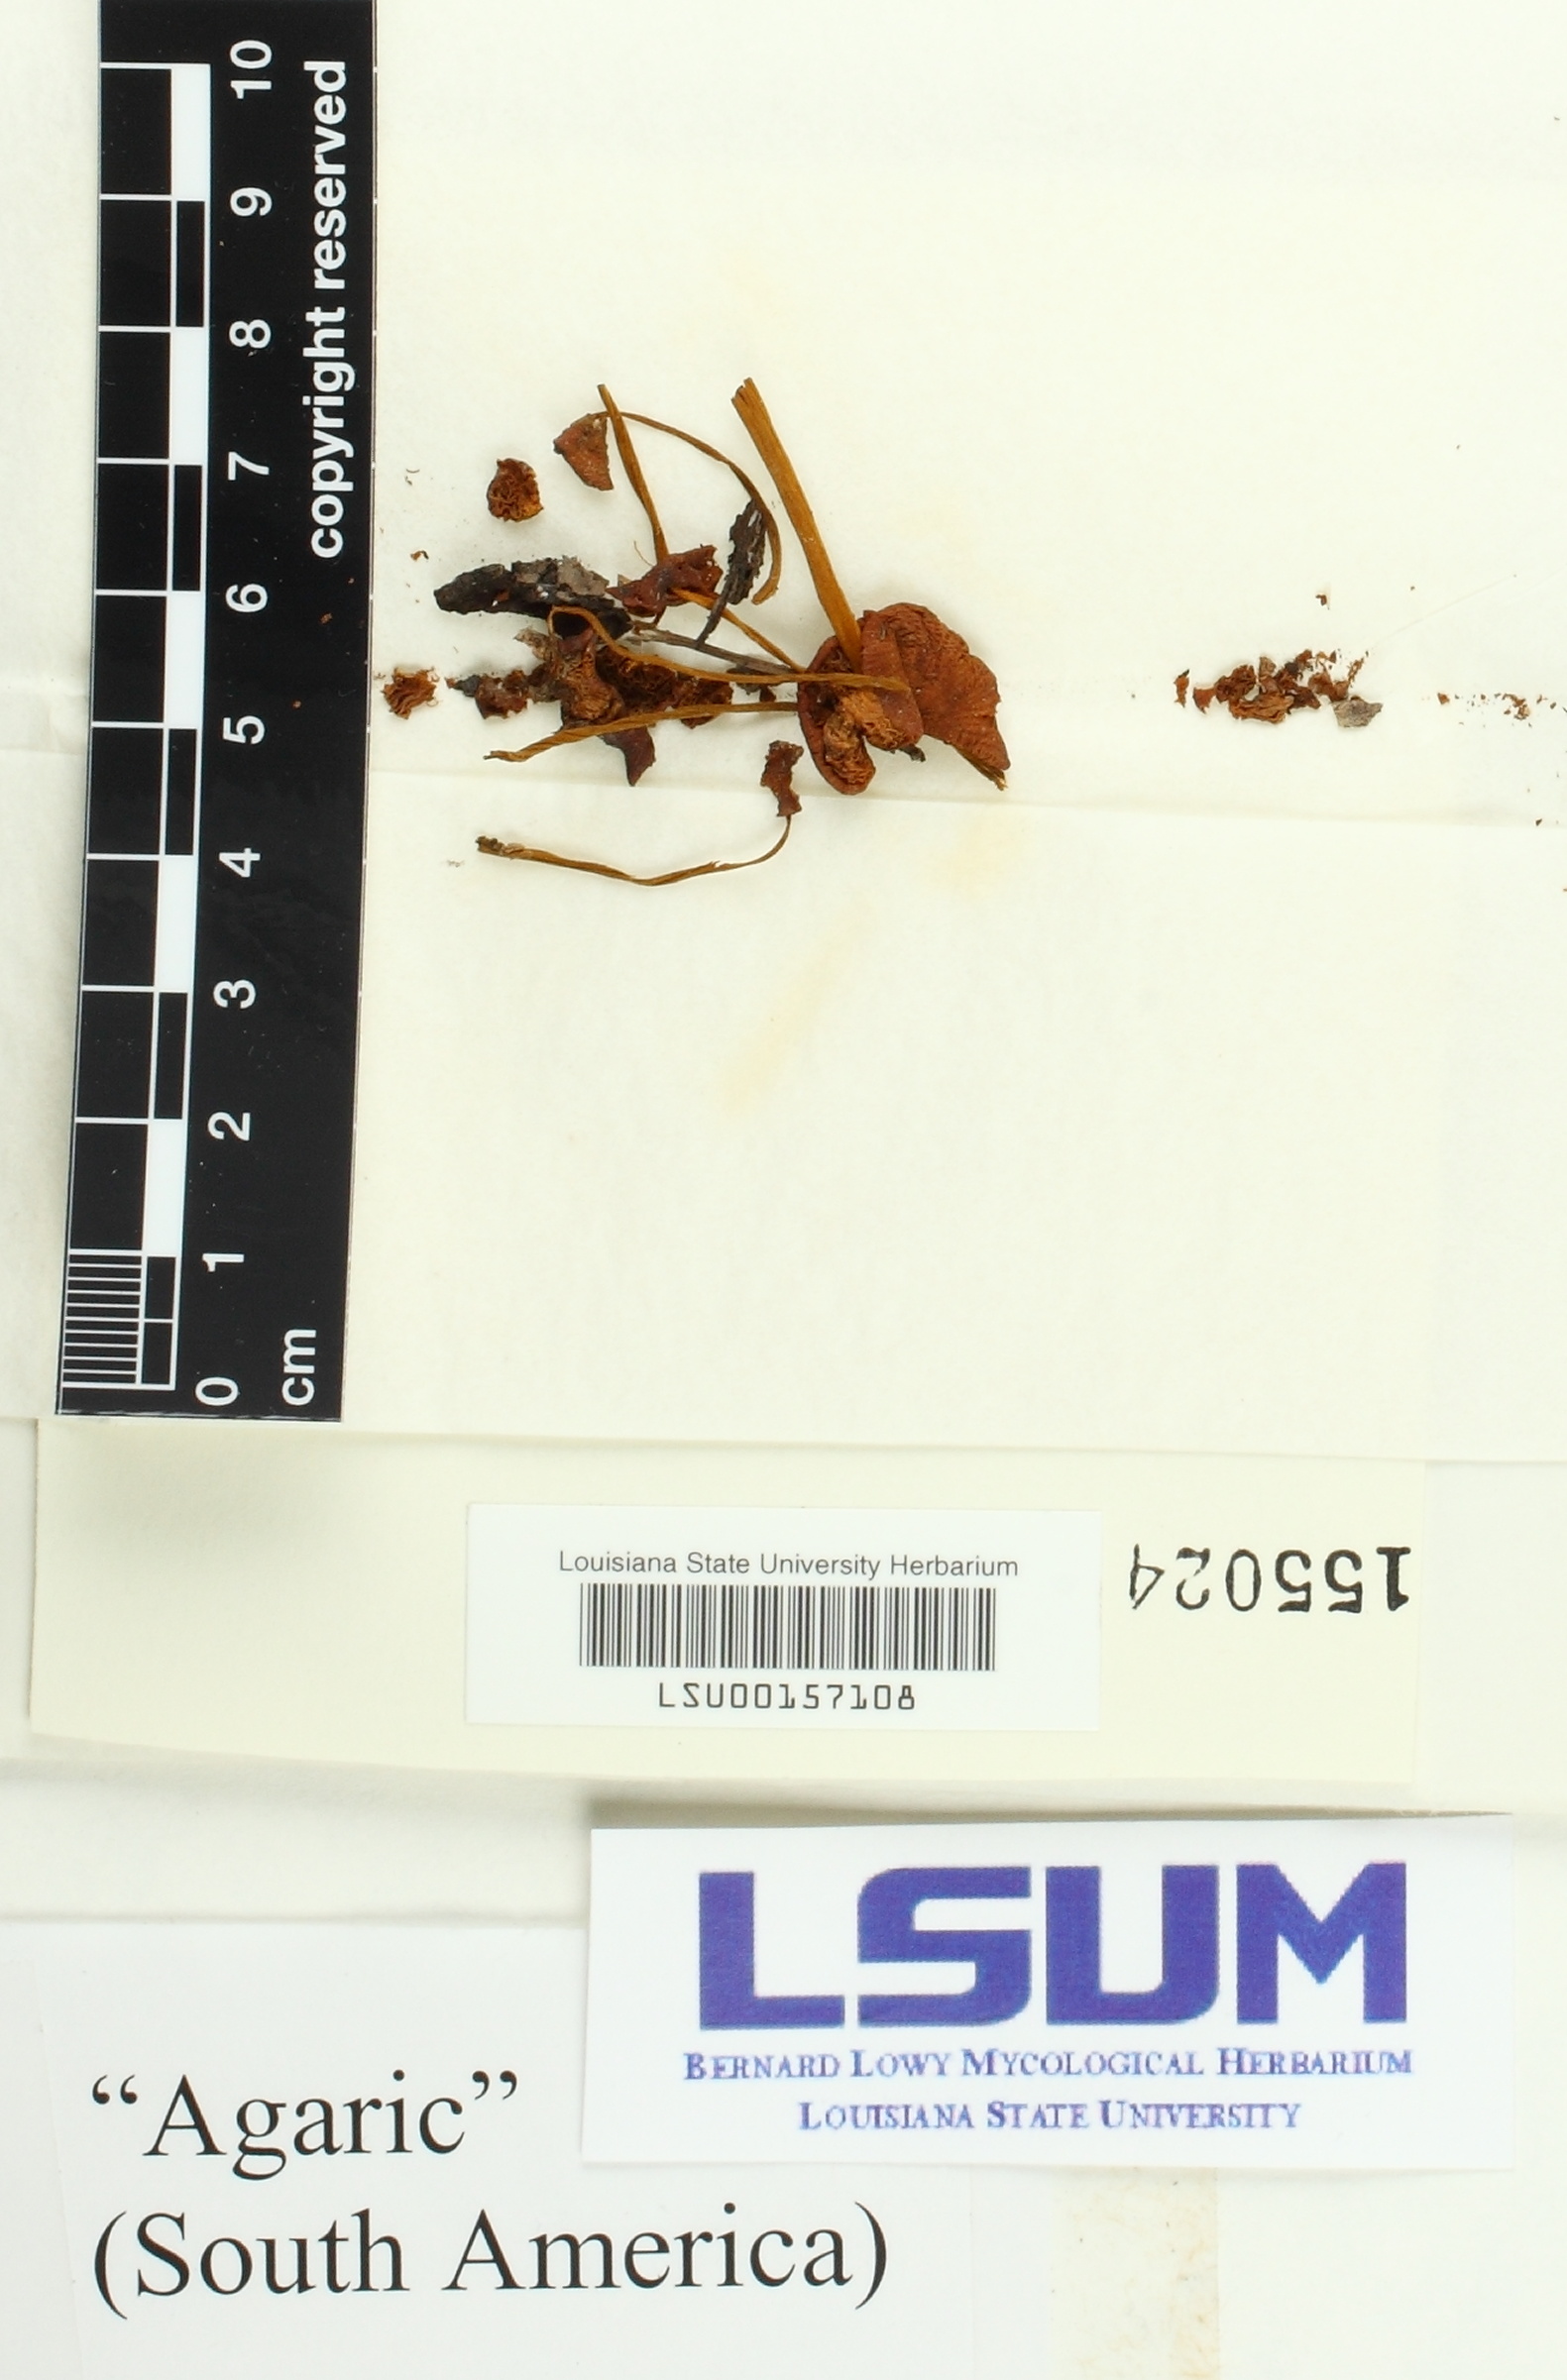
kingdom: Fungi
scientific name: Fungi
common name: Fungi
